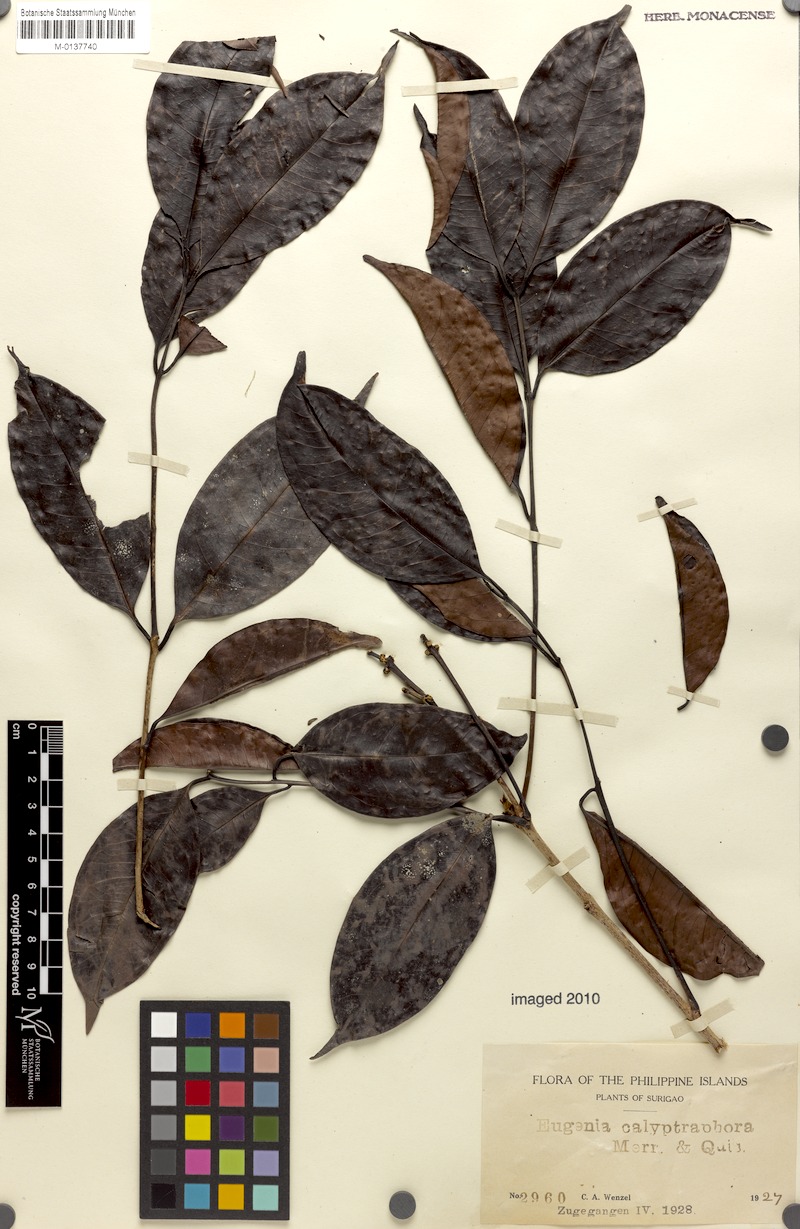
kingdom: Plantae
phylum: Tracheophyta
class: Magnoliopsida
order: Myrtales
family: Myrtaceae
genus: Syzygium
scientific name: Syzygium cumini
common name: Java plum
